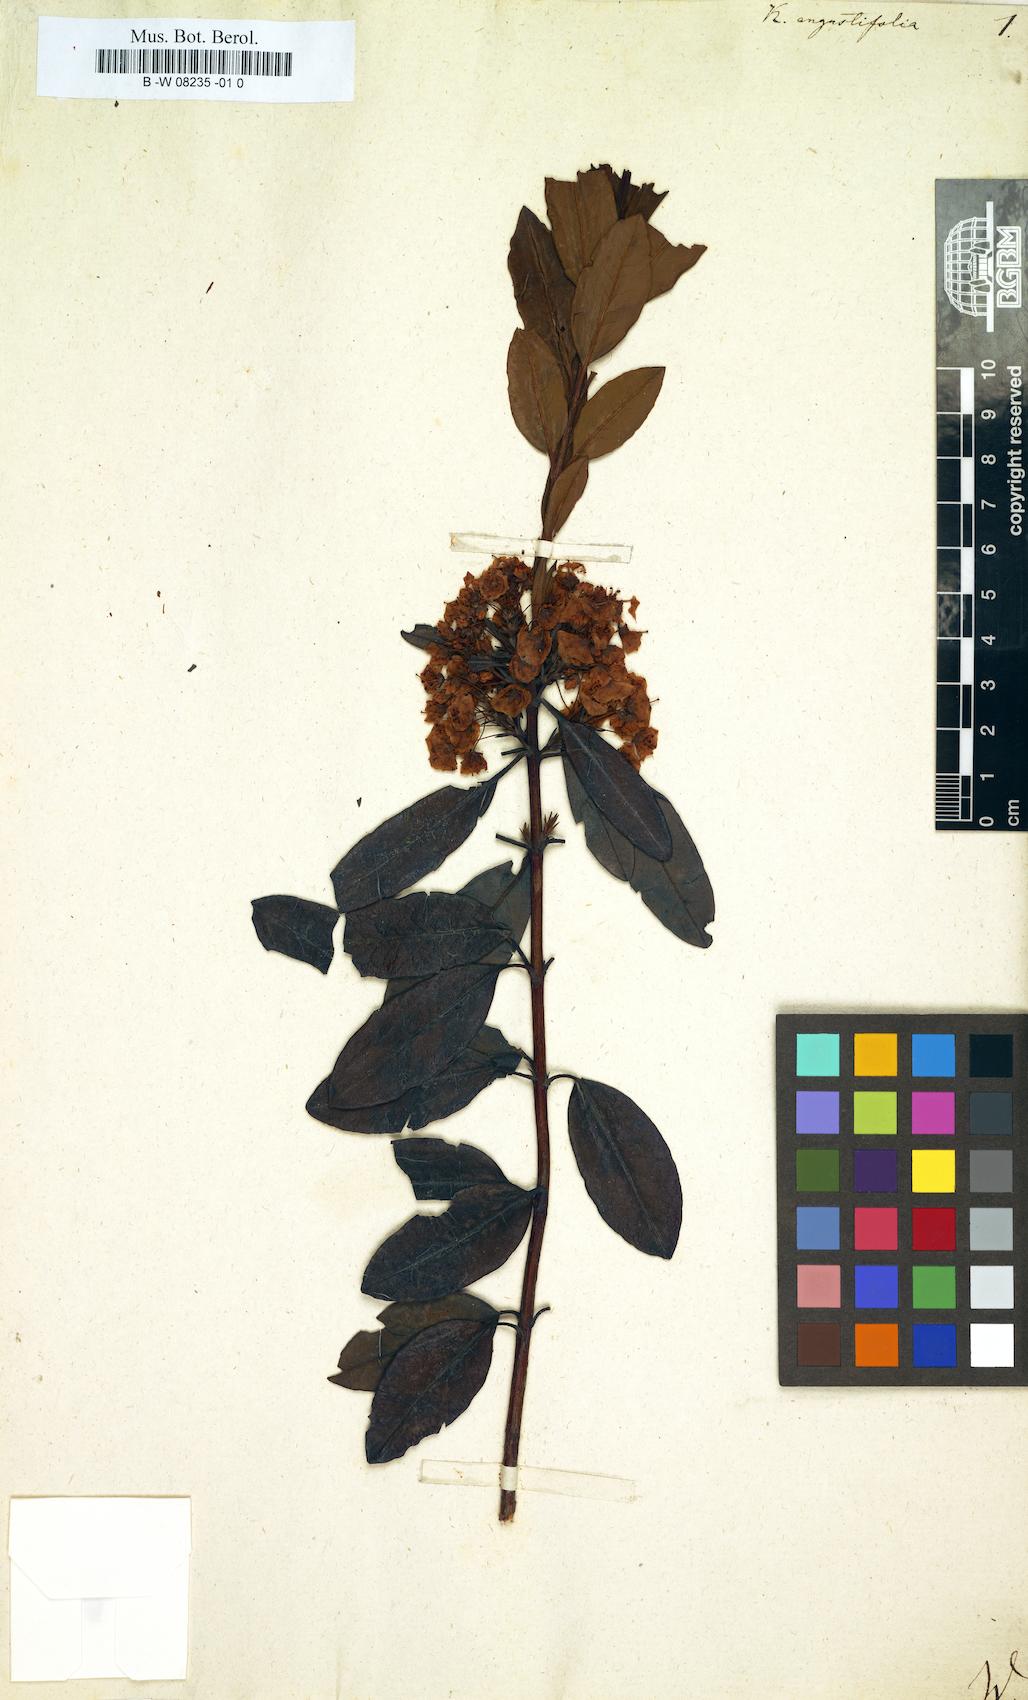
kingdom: Plantae
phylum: Tracheophyta
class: Magnoliopsida
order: Ericales
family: Ericaceae
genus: Kalmia
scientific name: Kalmia angustifolia
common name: Sheep-laurel
